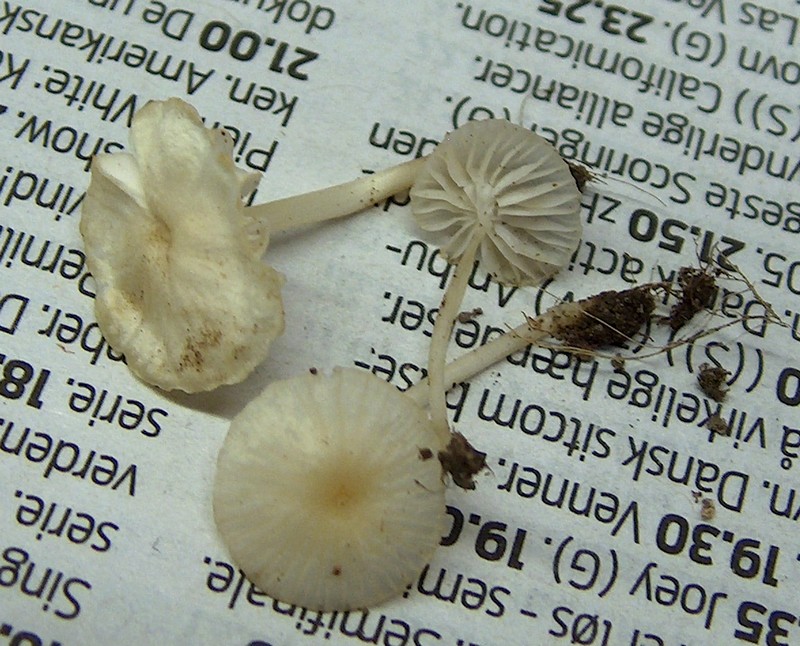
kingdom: Fungi
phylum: Basidiomycota
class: Agaricomycetes
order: Agaricales
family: Mycenaceae
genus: Atheniella
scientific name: Atheniella flavoalba
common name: gulhvid huesvamp
